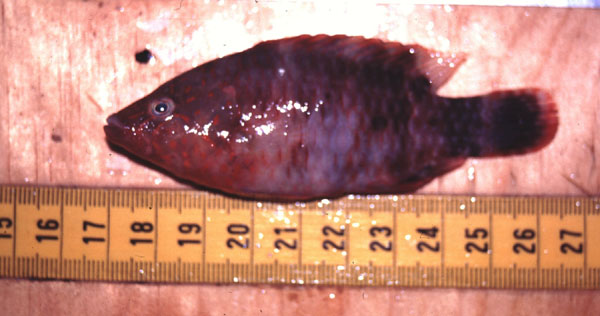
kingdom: Animalia
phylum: Chordata
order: Perciformes
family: Labridae
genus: Cheilinus
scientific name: Cheilinus oxycephalus
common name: Snooty wrasse
